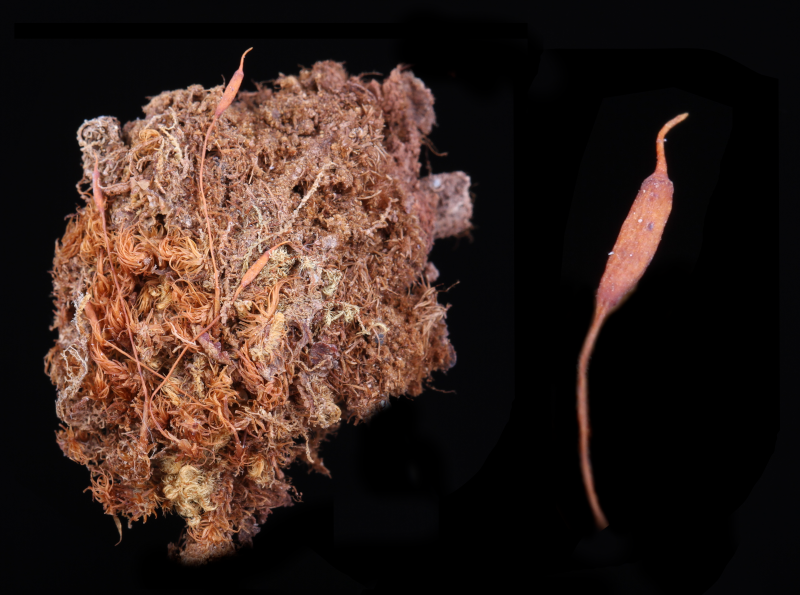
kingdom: Plantae
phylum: Bryophyta
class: Bryopsida
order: Dicranales
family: Dicranaceae
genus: Dicranum
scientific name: Dicranum psathyrum
